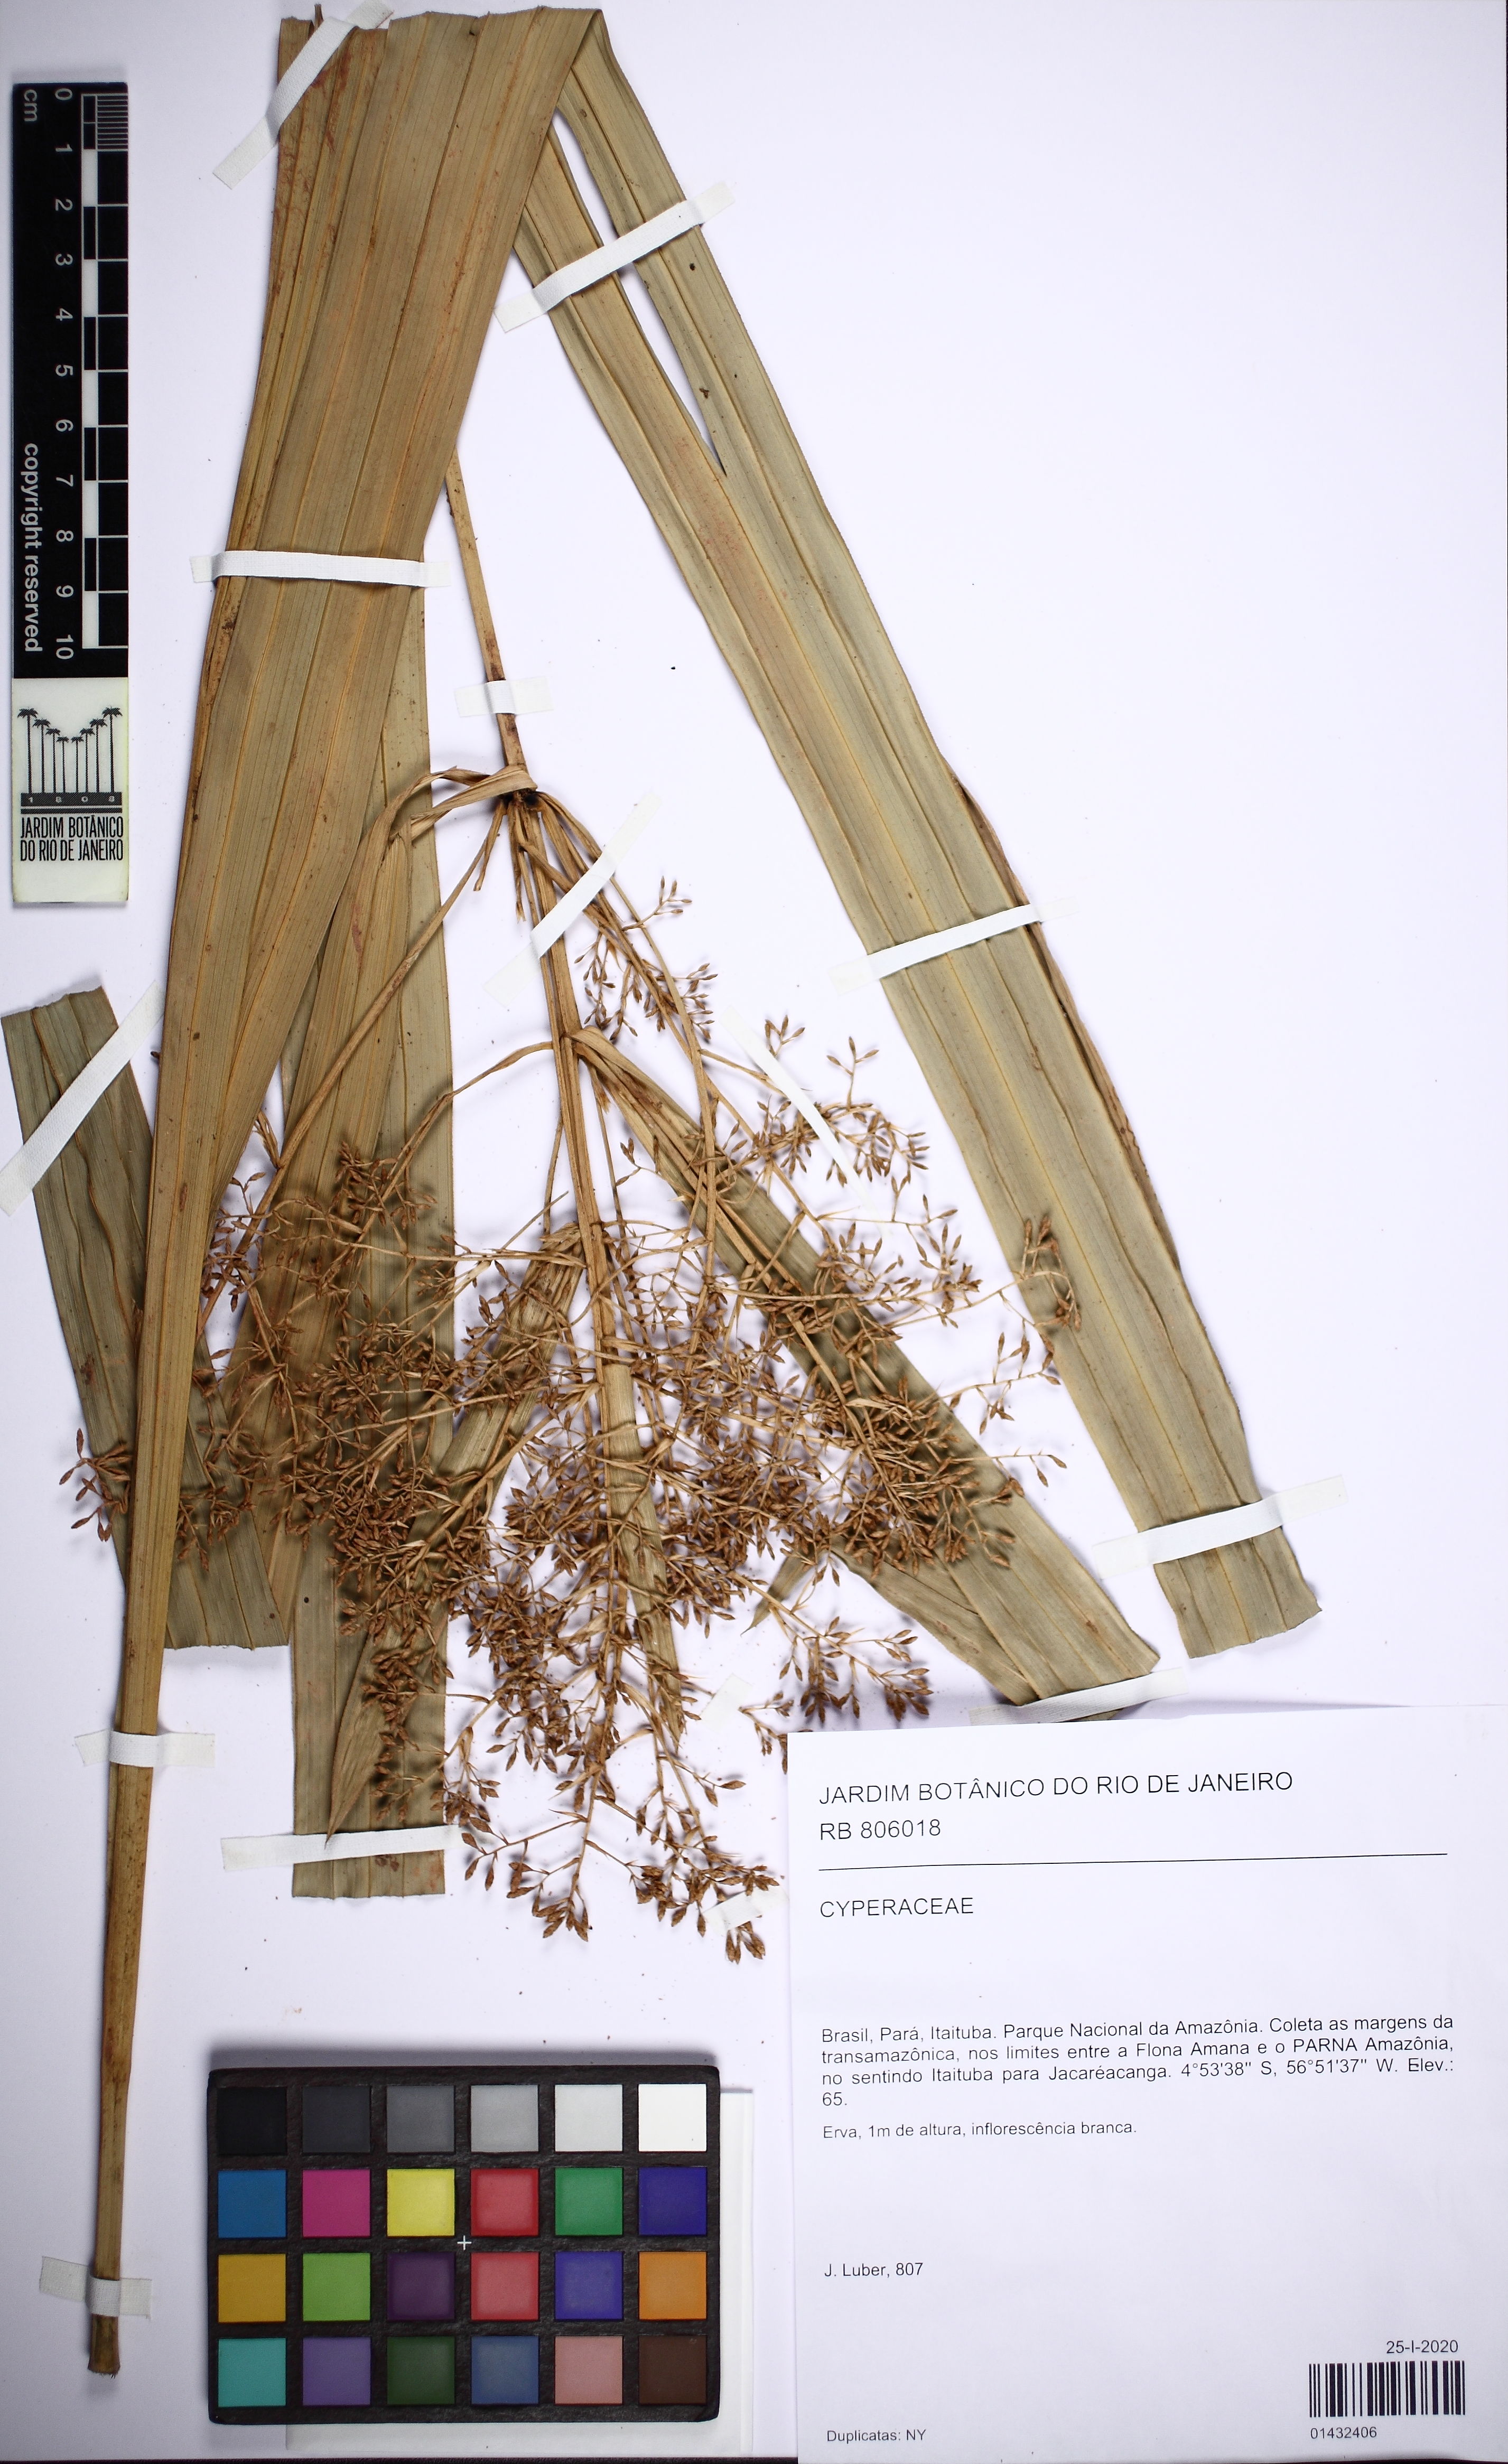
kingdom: Plantae
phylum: Tracheophyta
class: Liliopsida
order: Poales
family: Cyperaceae
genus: Hypolytrum
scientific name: Hypolytrum
